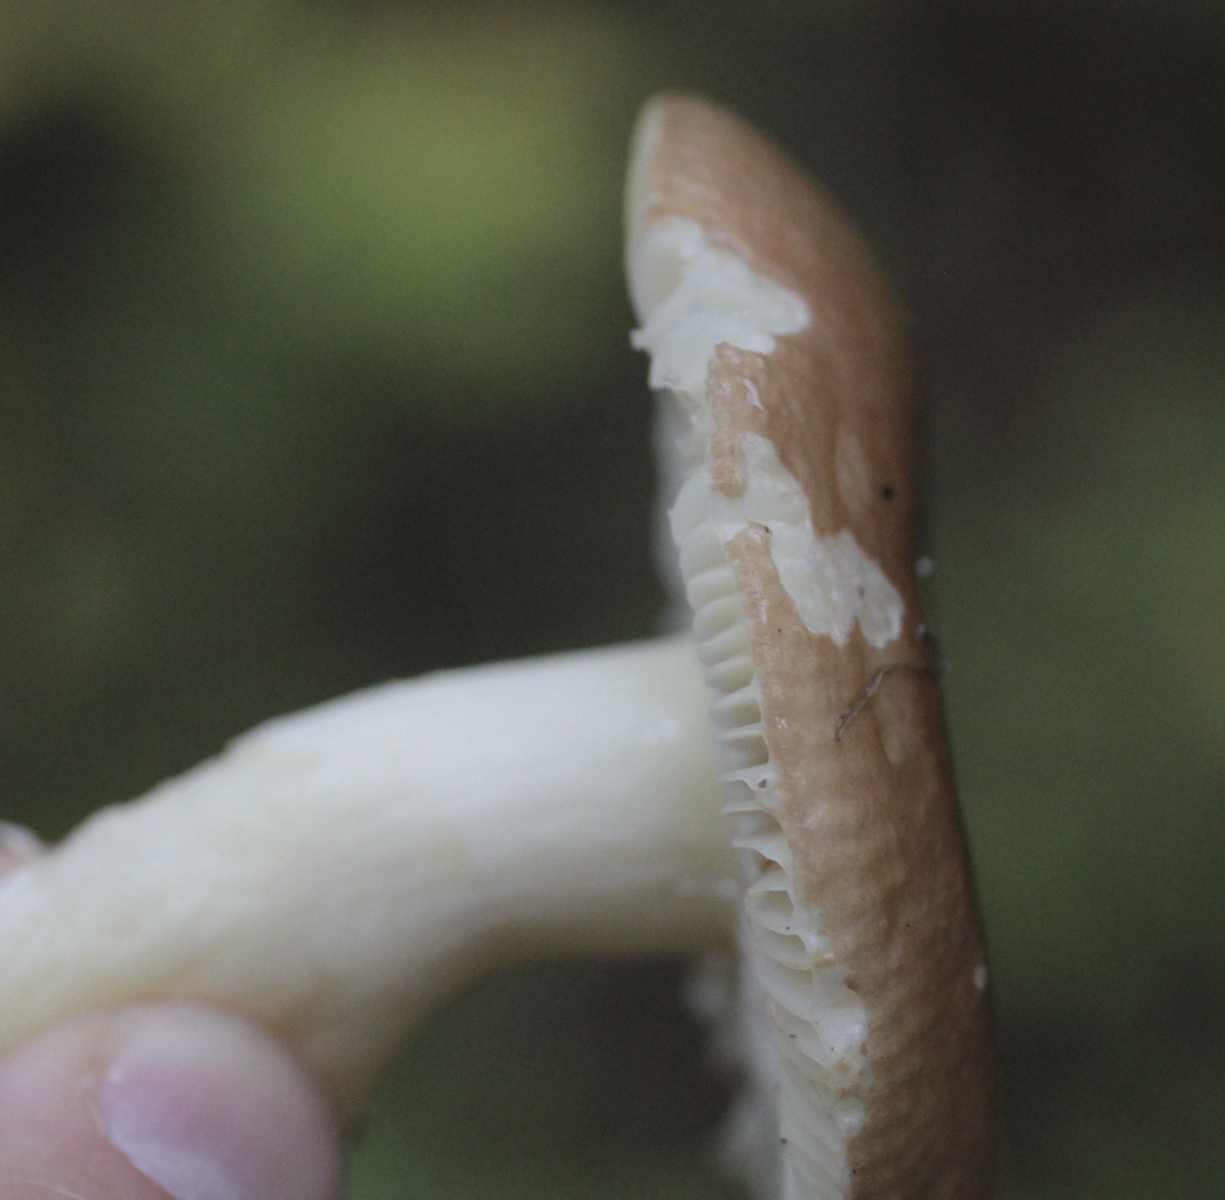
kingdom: Fungi
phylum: Basidiomycota
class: Agaricomycetes
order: Russulales
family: Russulaceae
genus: Russula
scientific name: Russula
